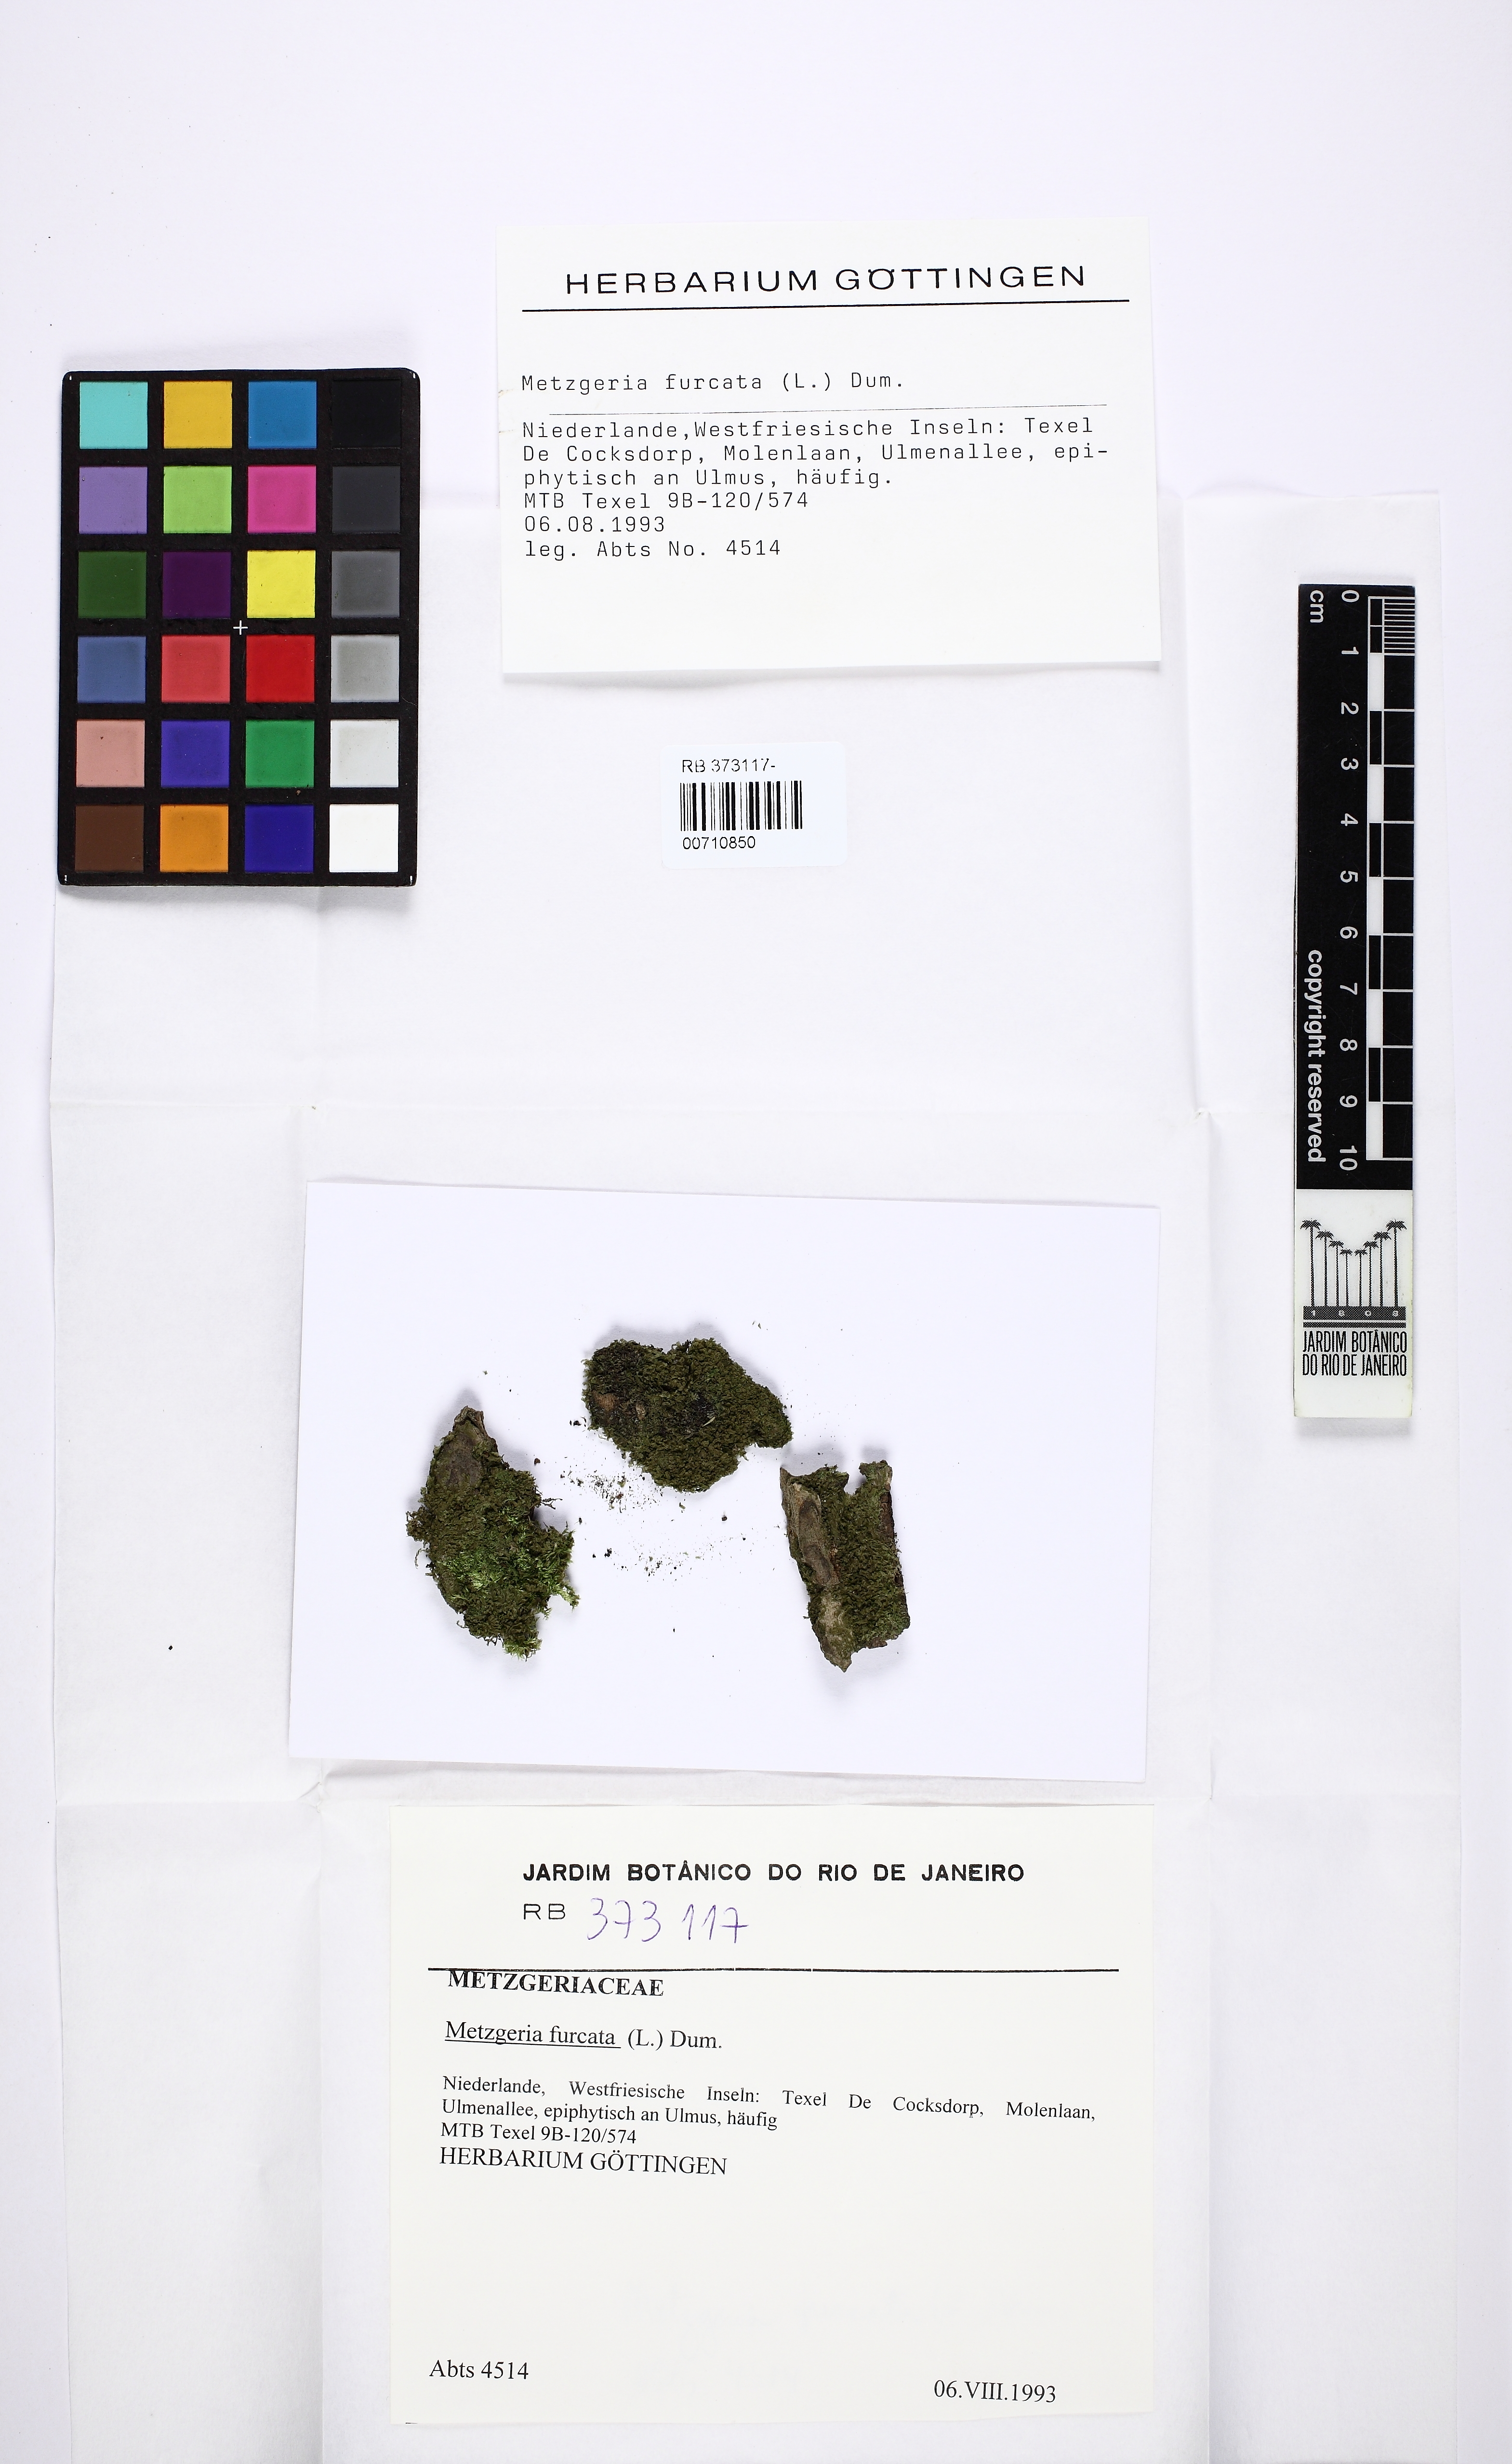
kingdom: Plantae
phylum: Marchantiophyta
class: Jungermanniopsida
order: Metzgeriales
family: Metzgeriaceae
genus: Metzgeria
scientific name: Metzgeria furcata
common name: Forked veilwort
